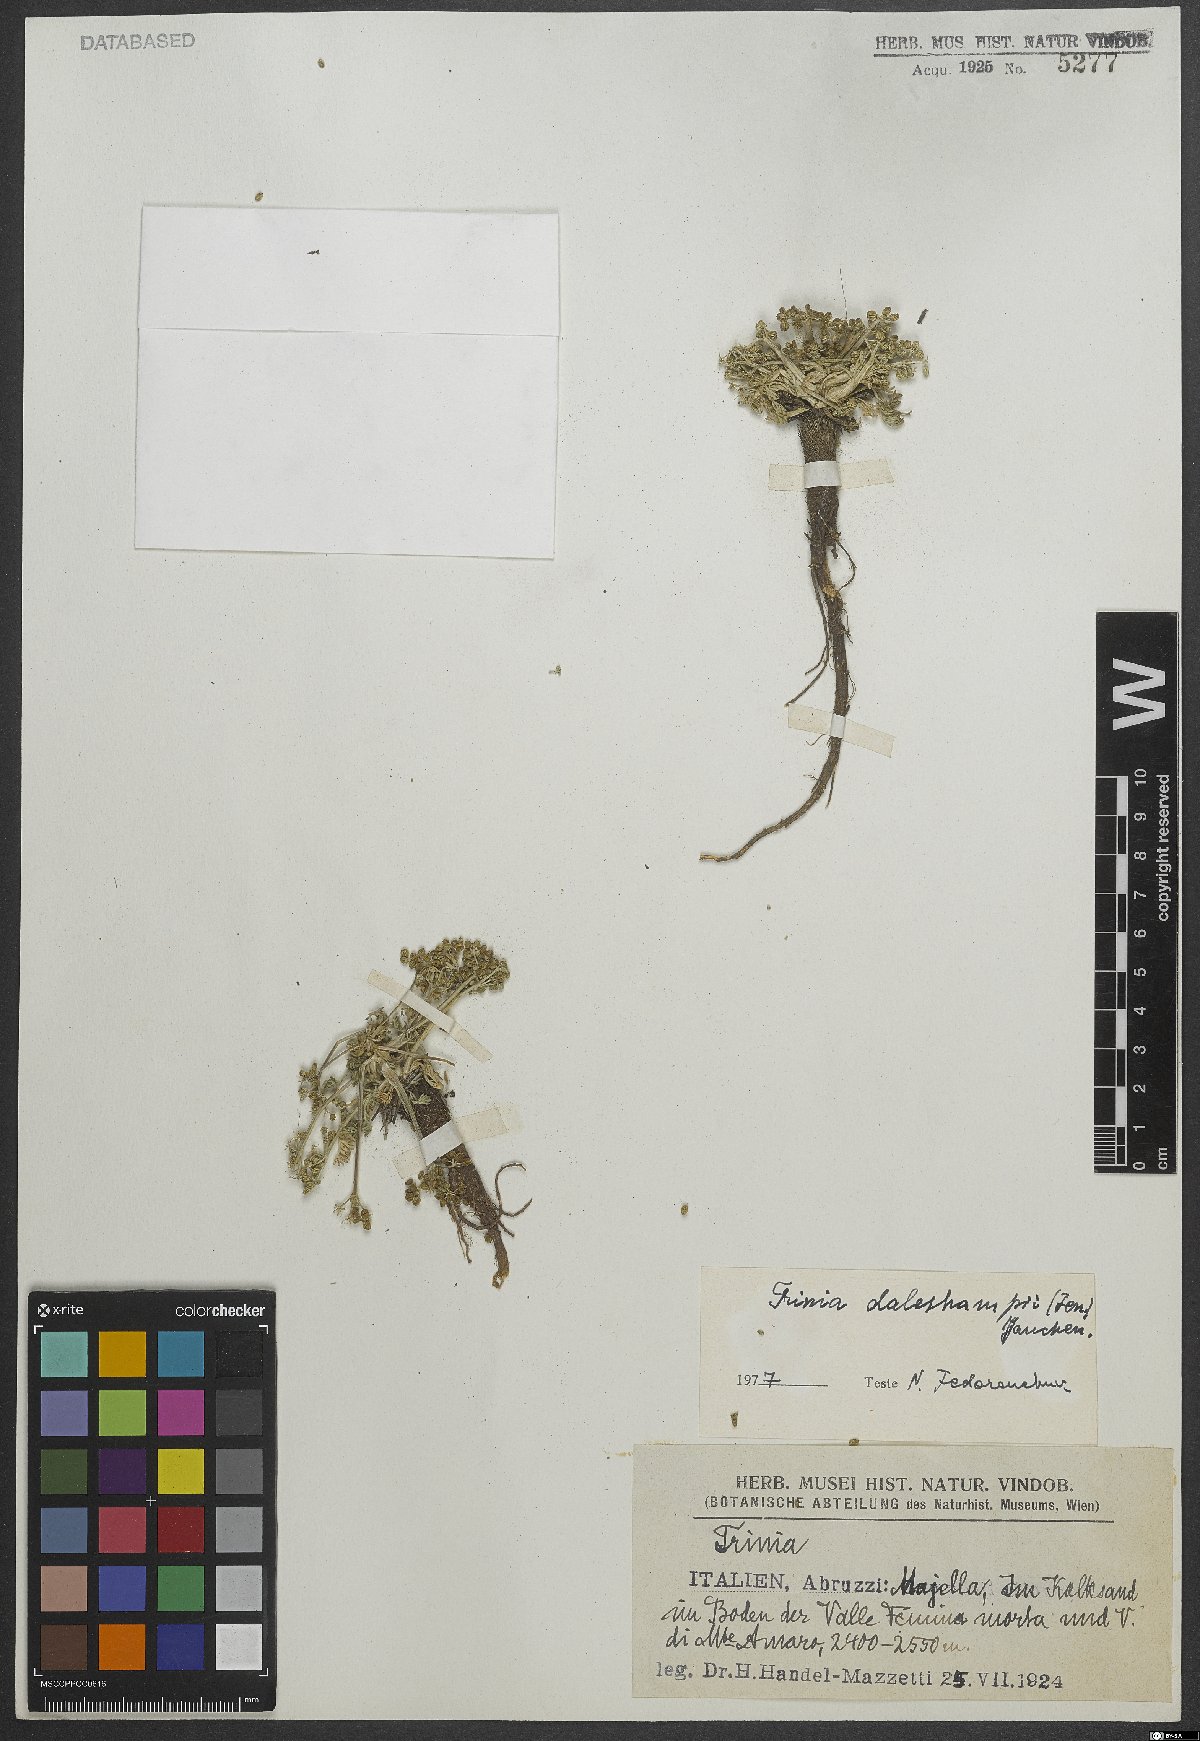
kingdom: Plantae
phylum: Tracheophyta
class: Magnoliopsida
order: Apiales
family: Apiaceae
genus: Trinia
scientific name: Trinia dalechampii
